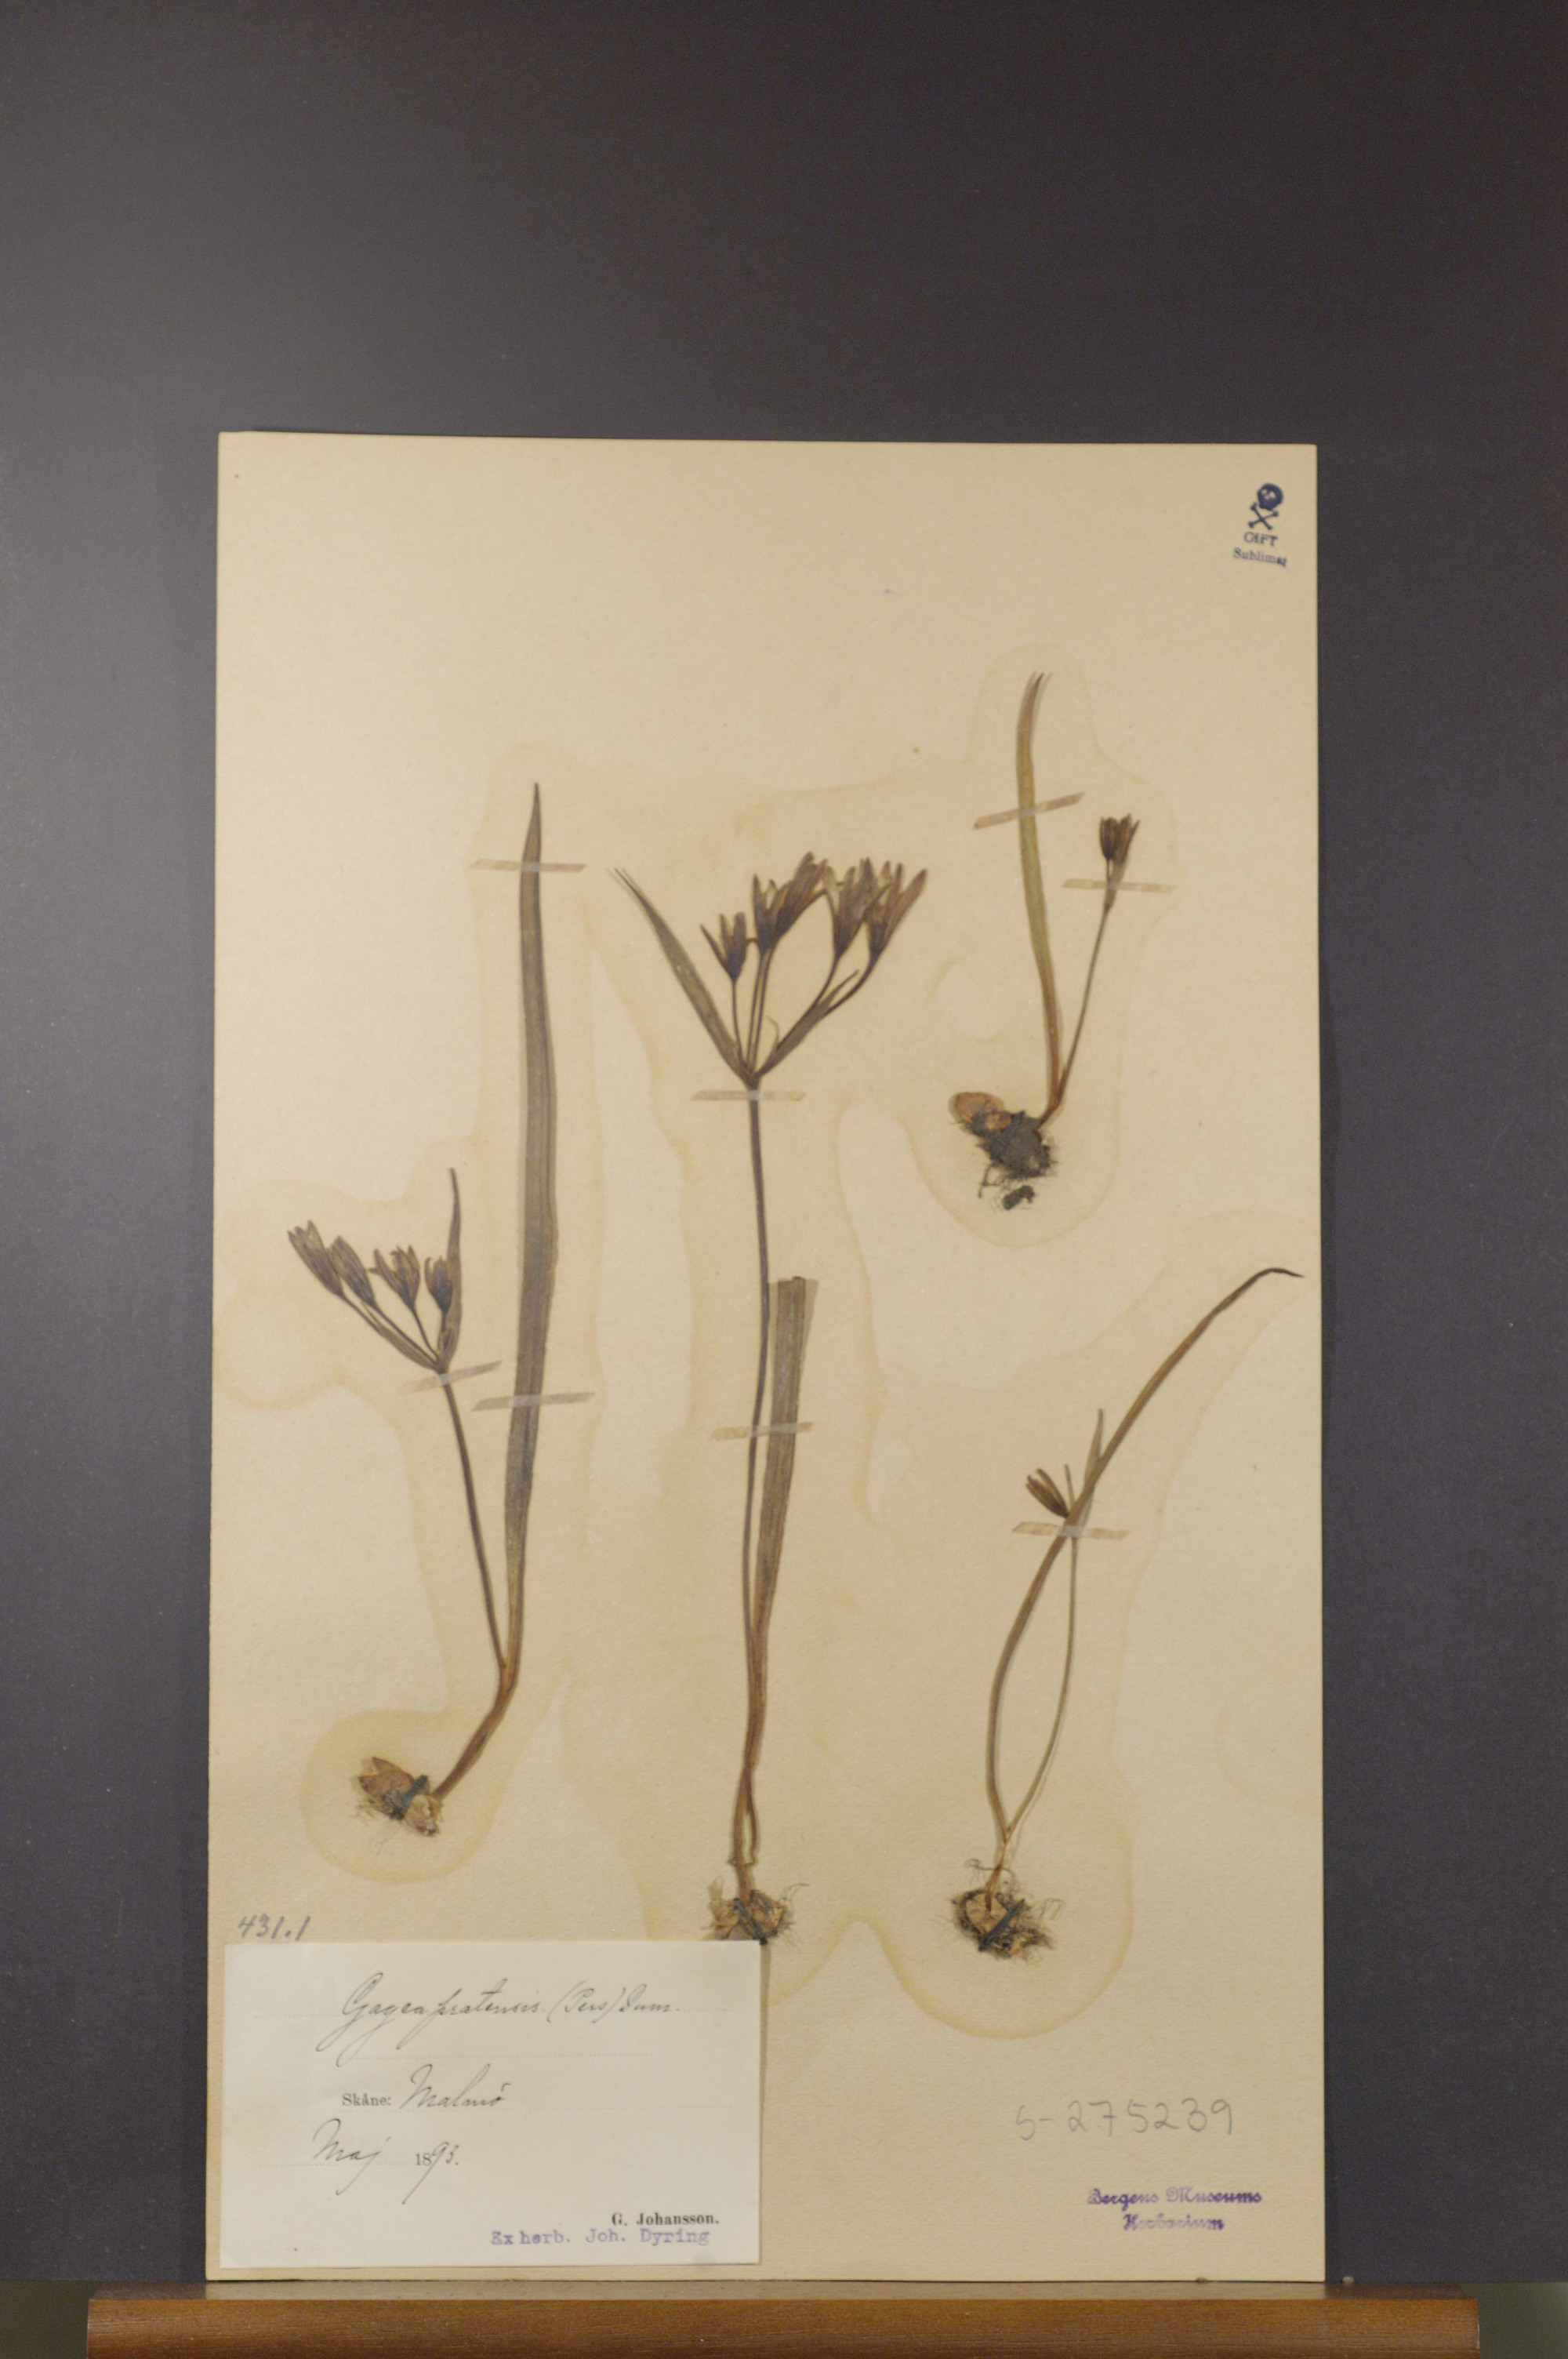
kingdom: Plantae
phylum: Tracheophyta
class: Liliopsida
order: Liliales
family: Liliaceae
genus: Gagea
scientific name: Gagea pratensis
